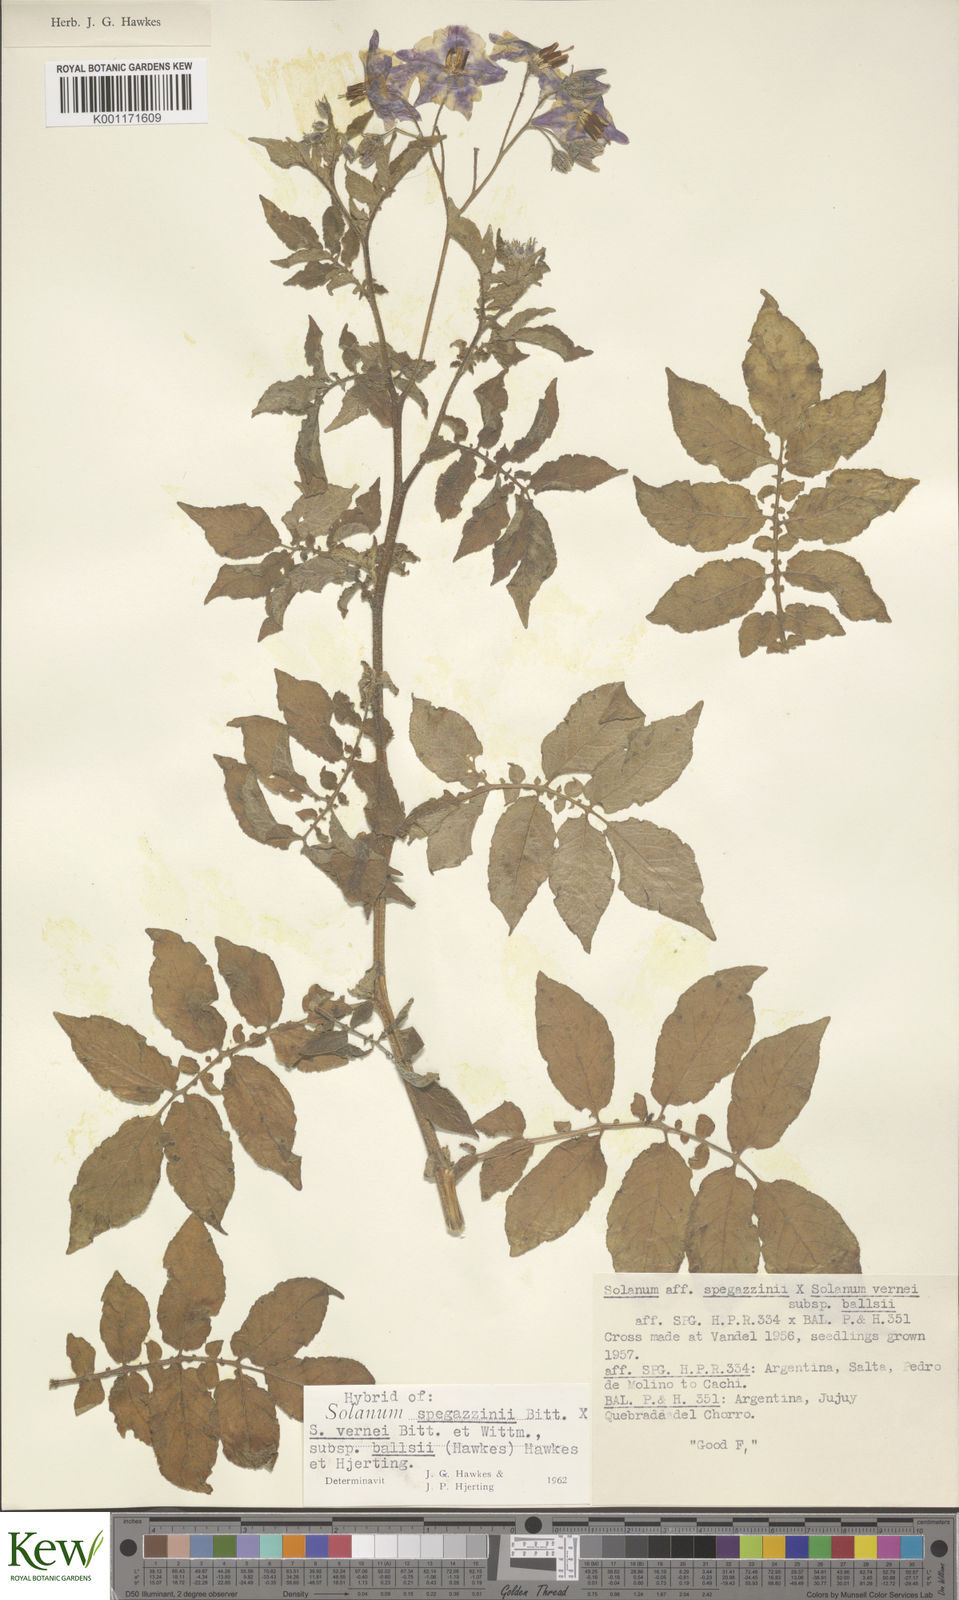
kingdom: Plantae
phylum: Tracheophyta
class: Magnoliopsida
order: Solanales
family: Solanaceae
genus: Solanum
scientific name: Solanum vernei
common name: Purple potato
